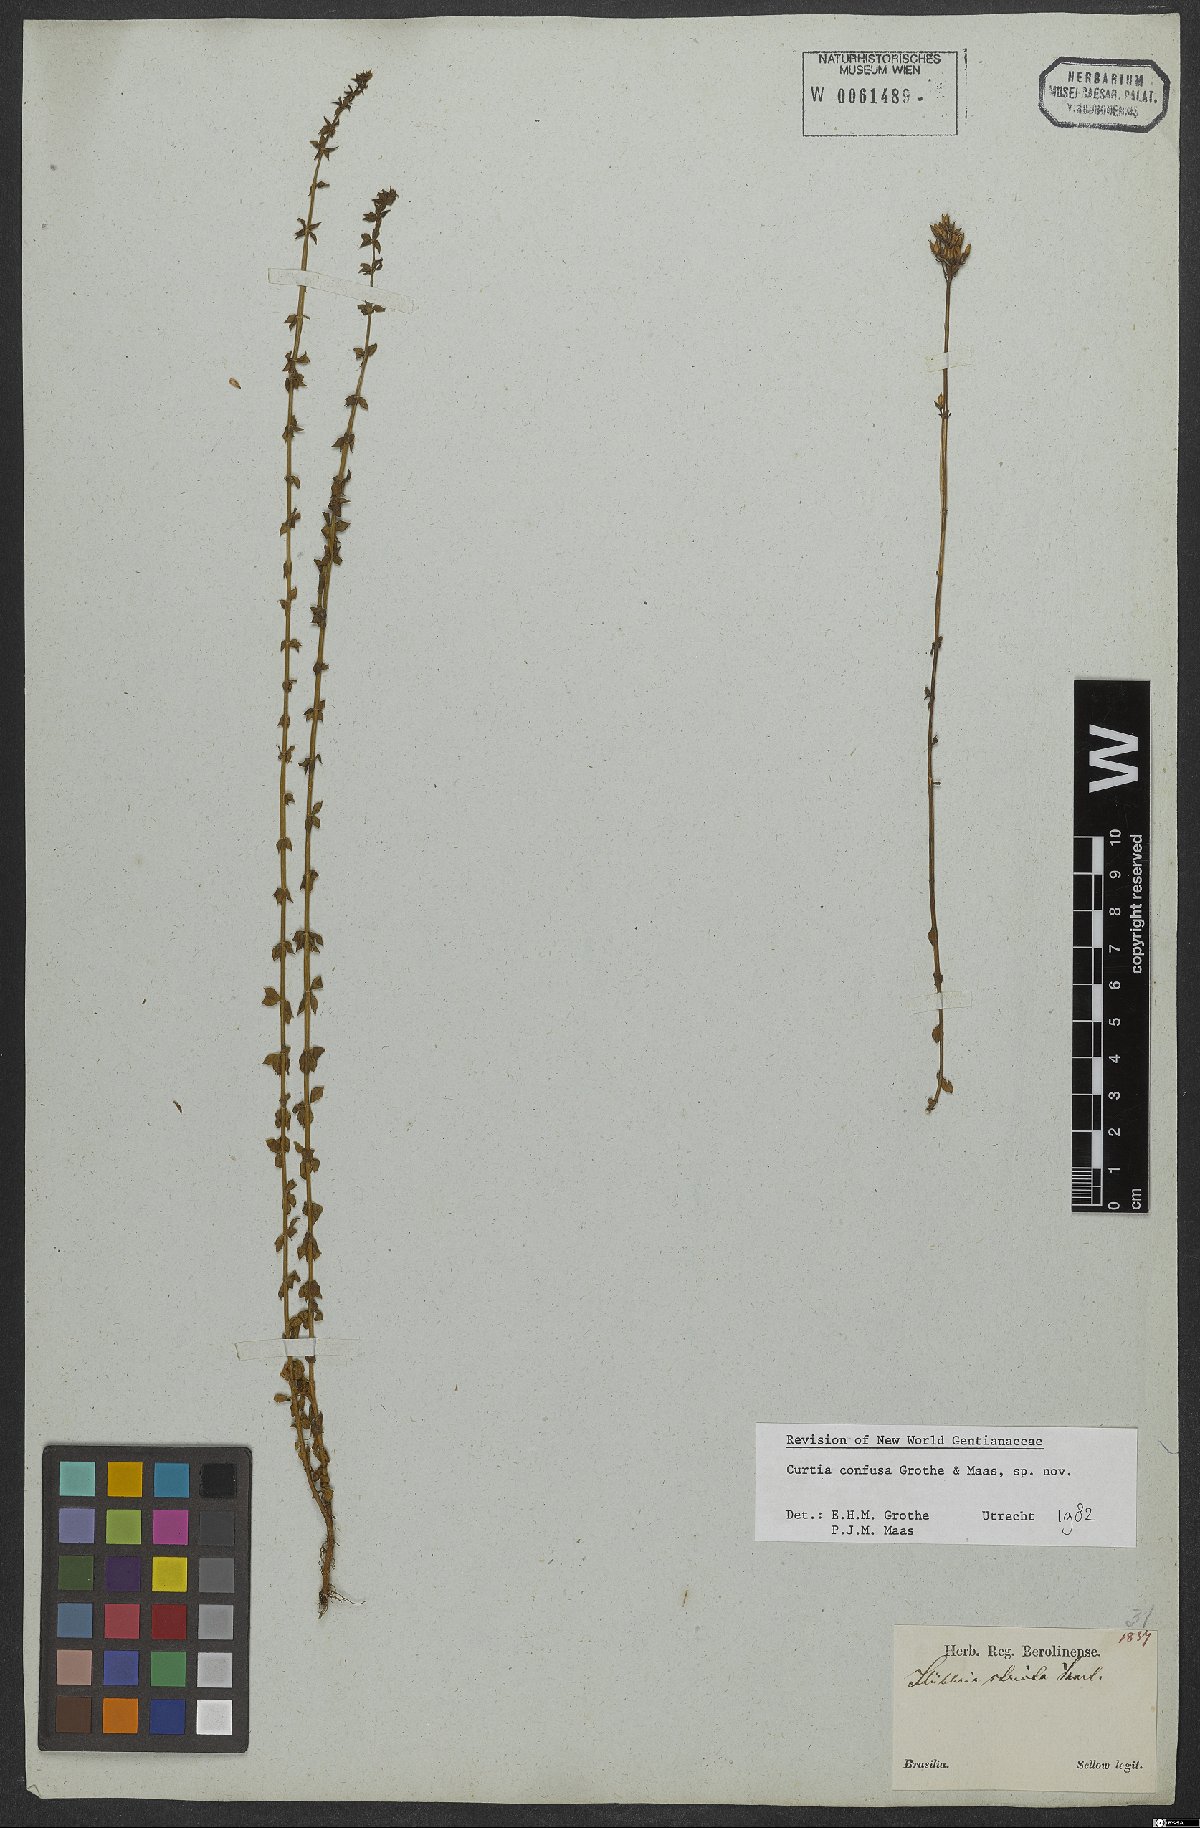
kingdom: Plantae
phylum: Tracheophyta
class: Magnoliopsida
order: Gentianales
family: Gentianaceae
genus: Curtia
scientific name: Curtia conferta
